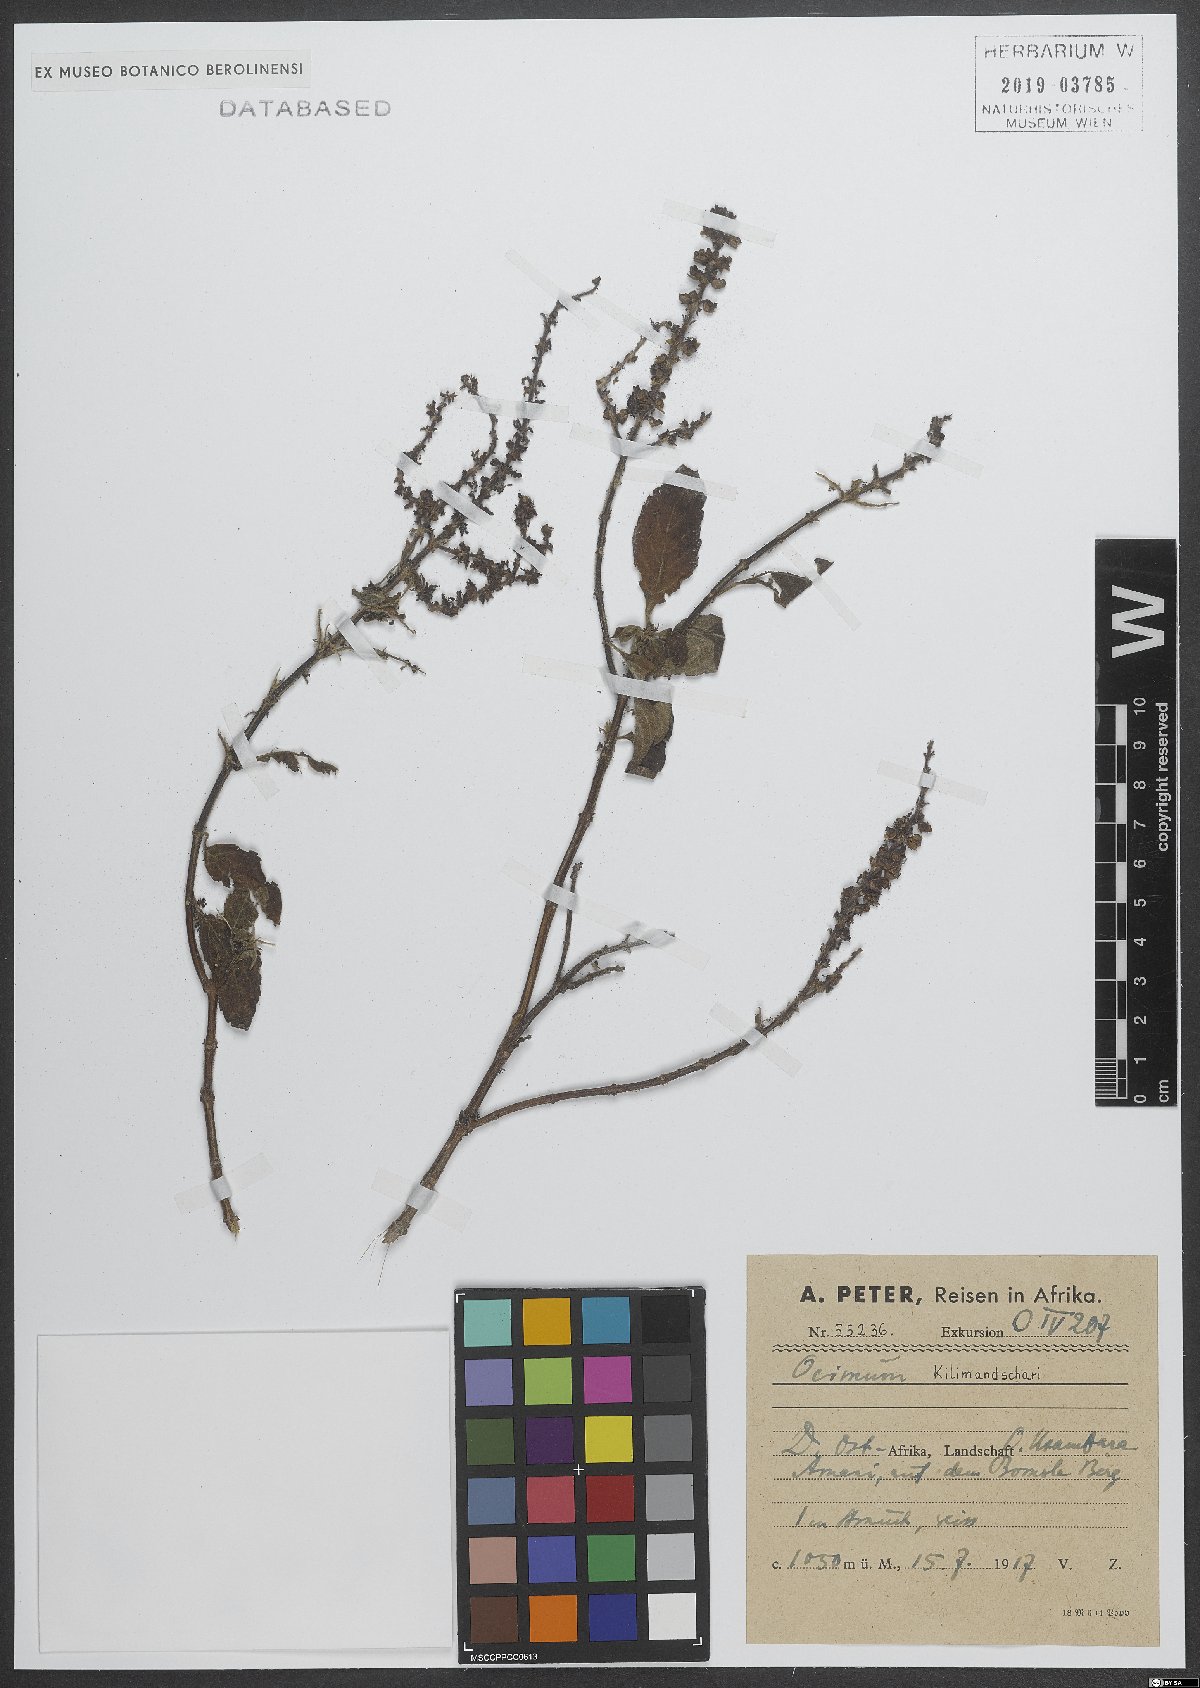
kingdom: Plantae
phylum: Tracheophyta
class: Magnoliopsida
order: Lamiales
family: Lamiaceae
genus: Ocimum
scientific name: Ocimum kilimandscharicum
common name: Camphor basil
